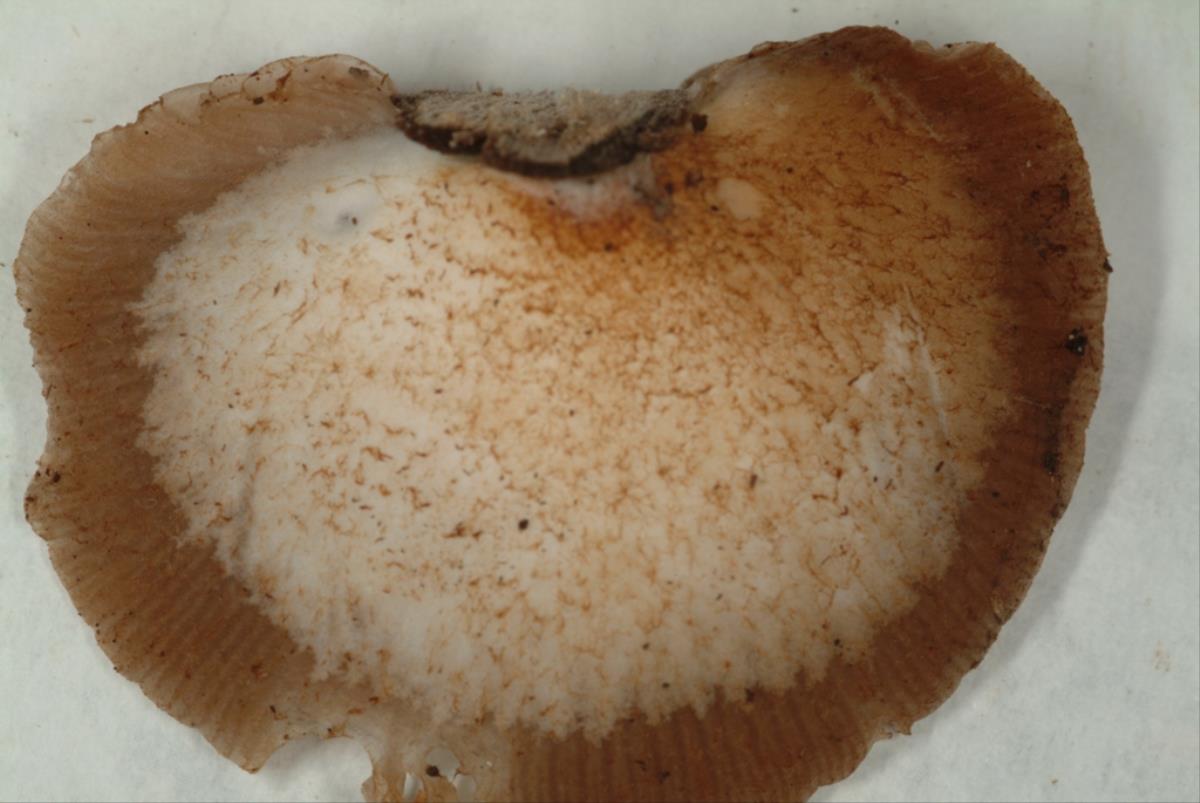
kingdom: Fungi
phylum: Basidiomycota
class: Agaricomycetes
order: Agaricales
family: Marasmiaceae
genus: Marasmius
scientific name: Marasmius
